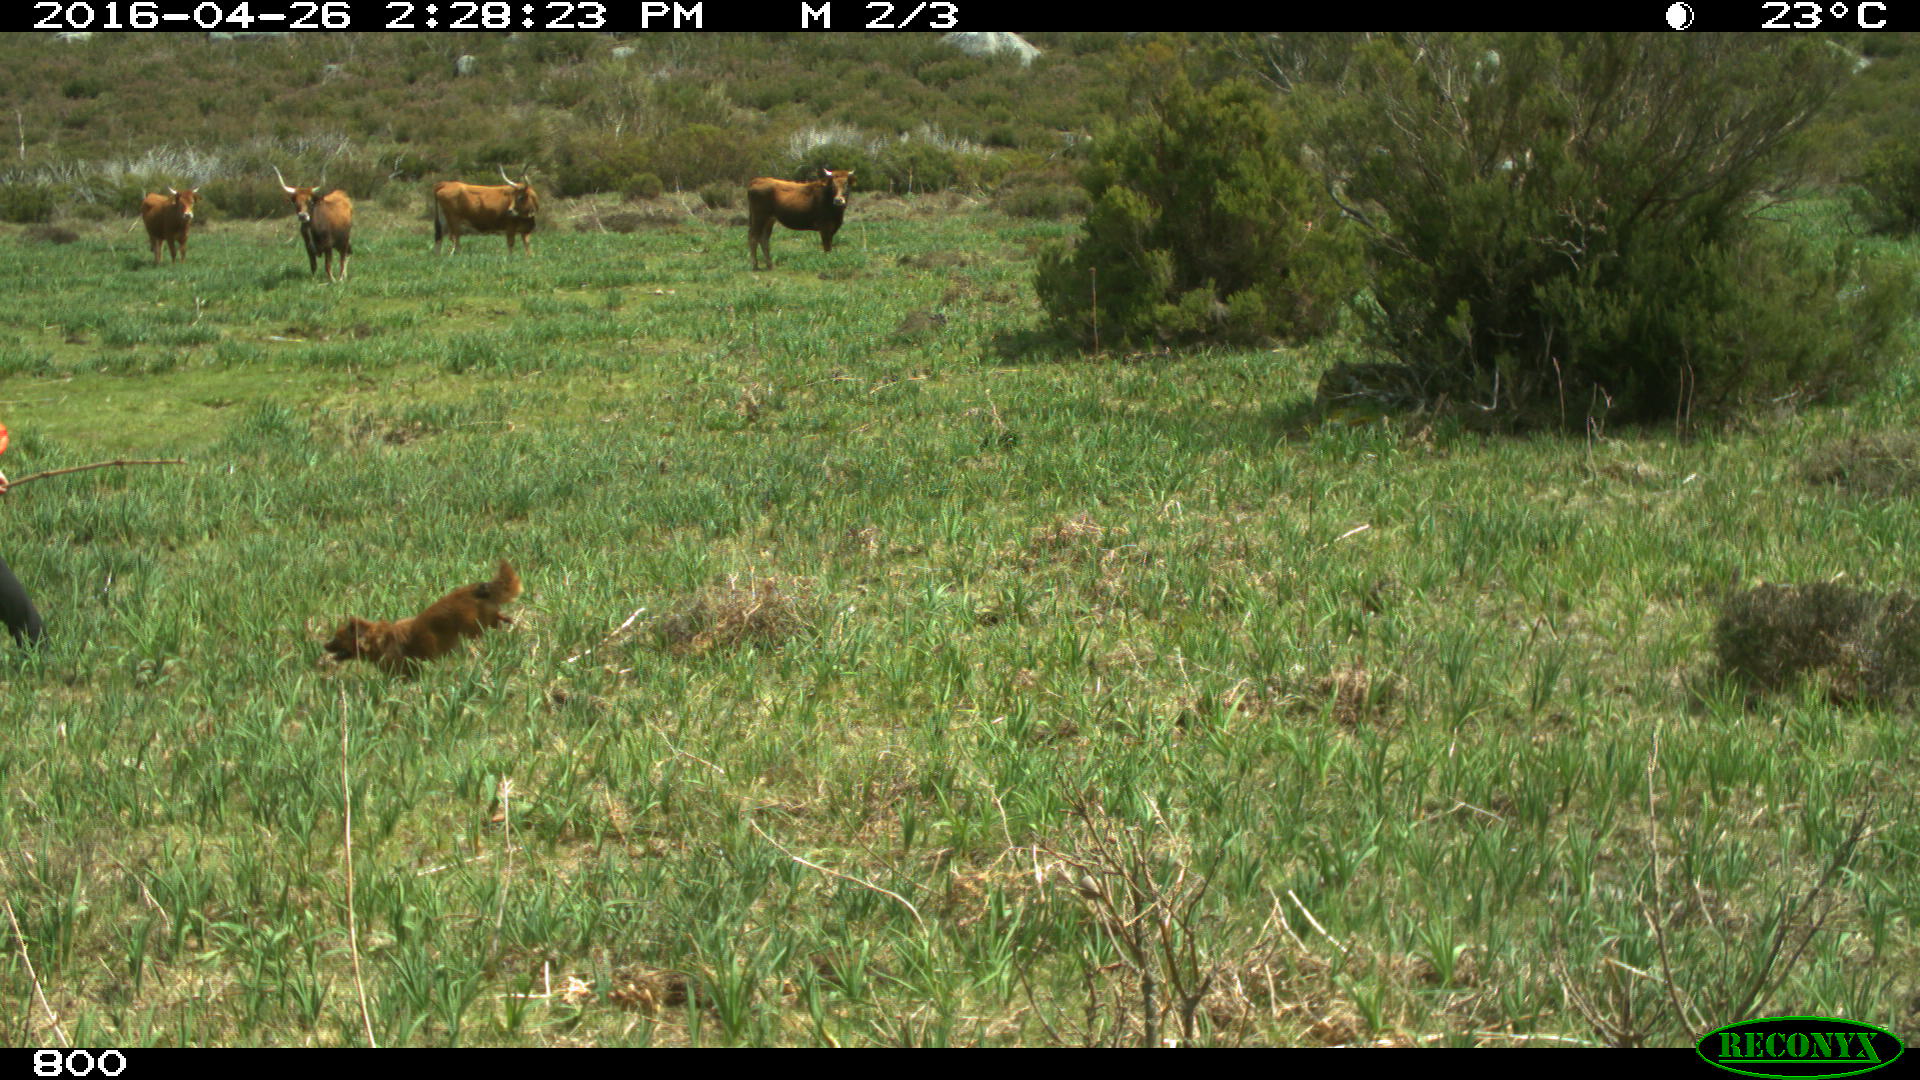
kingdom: Animalia
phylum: Chordata
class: Mammalia
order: Artiodactyla
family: Bovidae
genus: Bos
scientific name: Bos taurus
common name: Domesticated cattle
